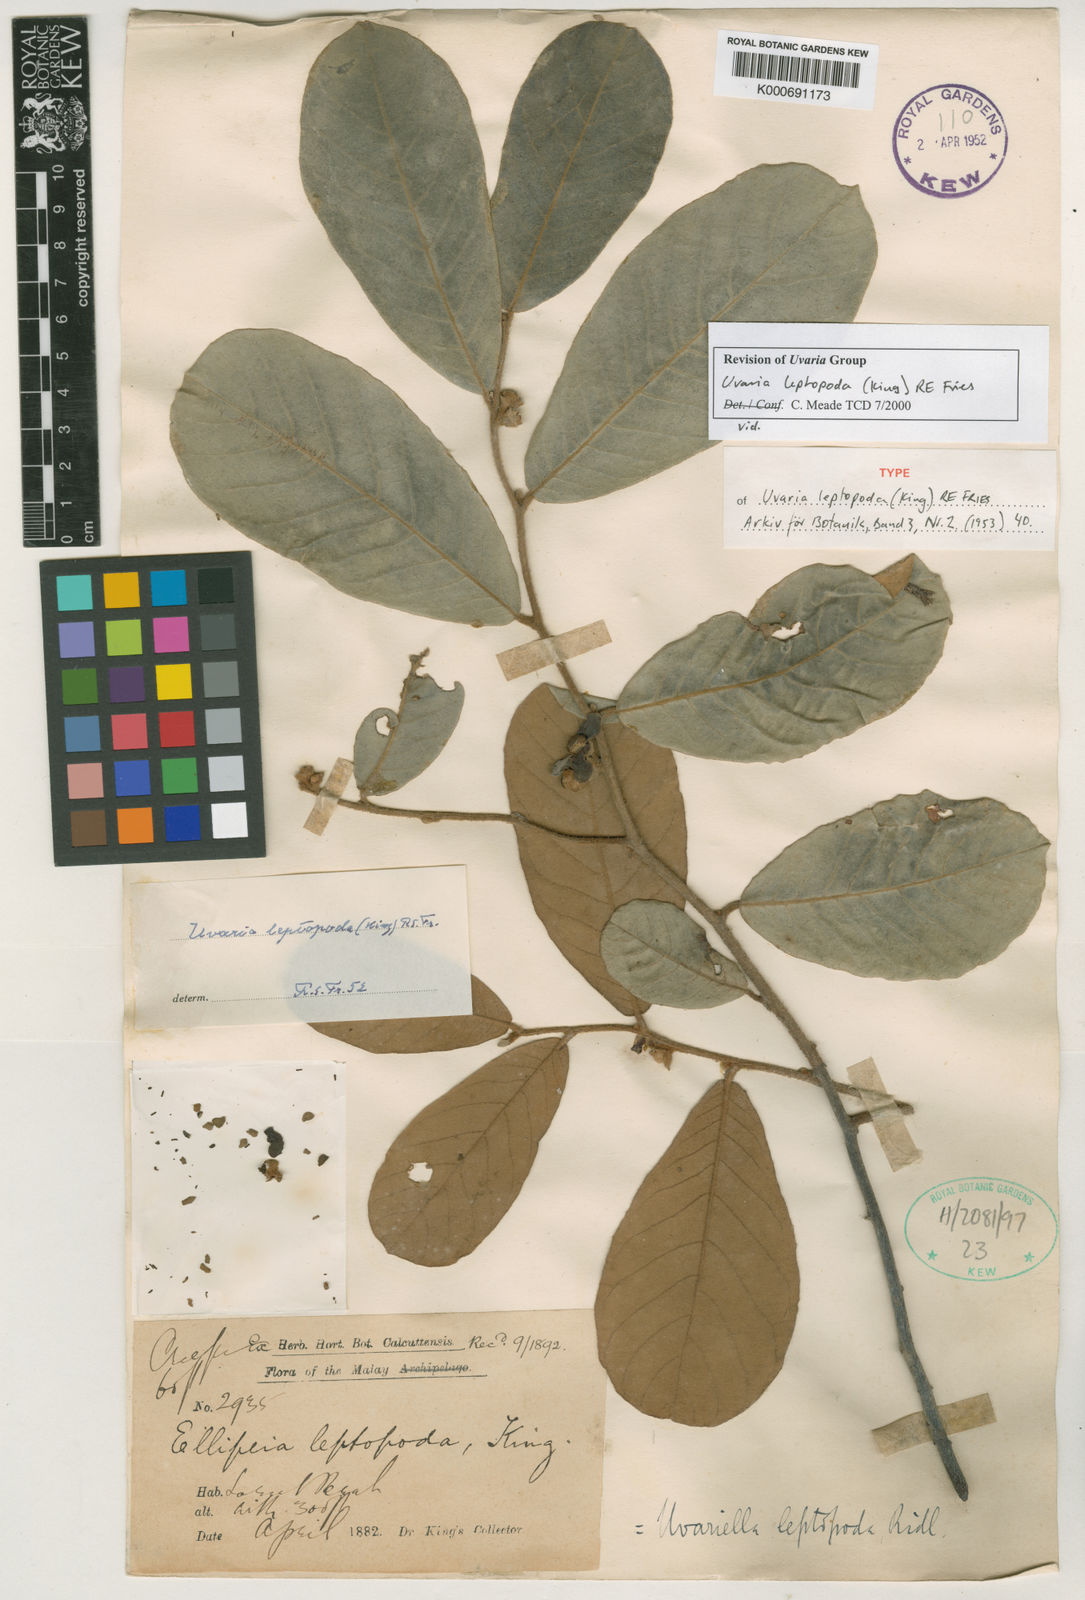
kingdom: Plantae
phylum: Tracheophyta
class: Magnoliopsida
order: Magnoliales
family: Annonaceae
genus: Uvaria
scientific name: Uvaria
